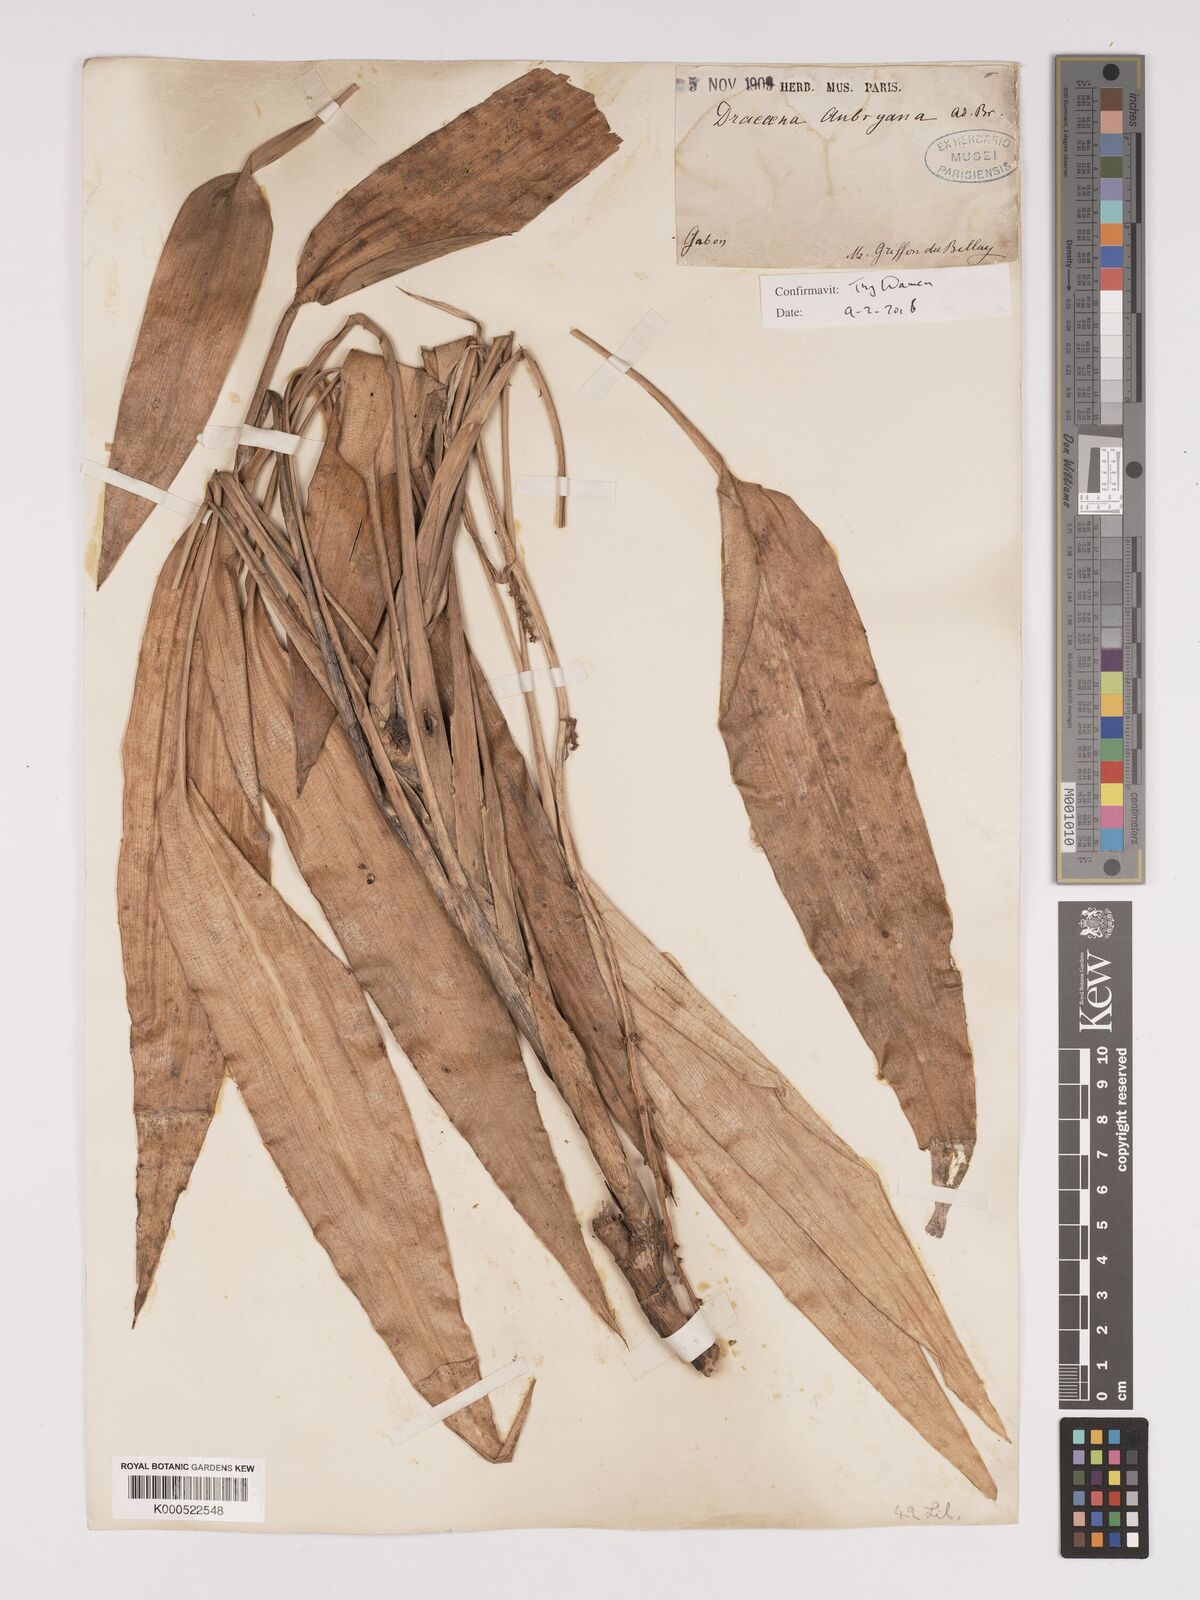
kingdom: Plantae
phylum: Tracheophyta
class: Liliopsida
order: Asparagales
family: Asparagaceae
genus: Dracaena
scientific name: Dracaena aubryana
